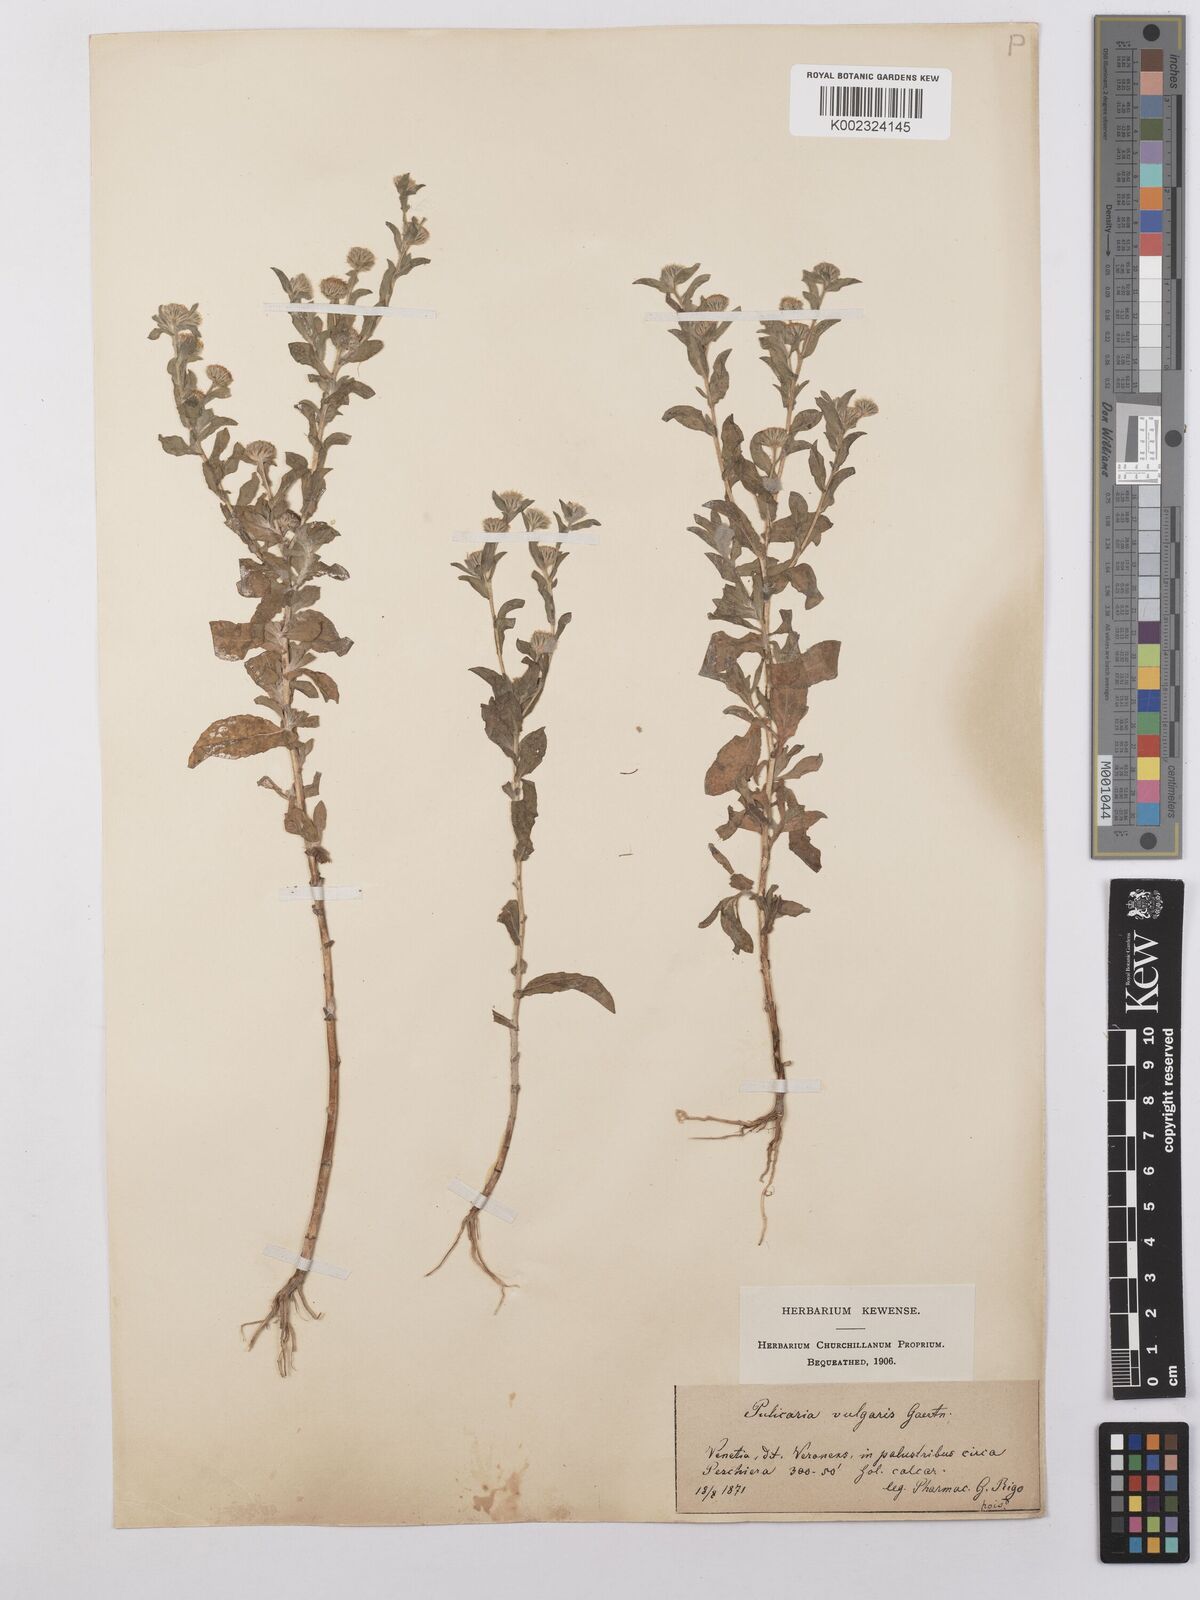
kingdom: Plantae
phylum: Tracheophyta
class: Magnoliopsida
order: Asterales
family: Asteraceae
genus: Pulicaria
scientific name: Pulicaria vulgaris
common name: Small fleabane
